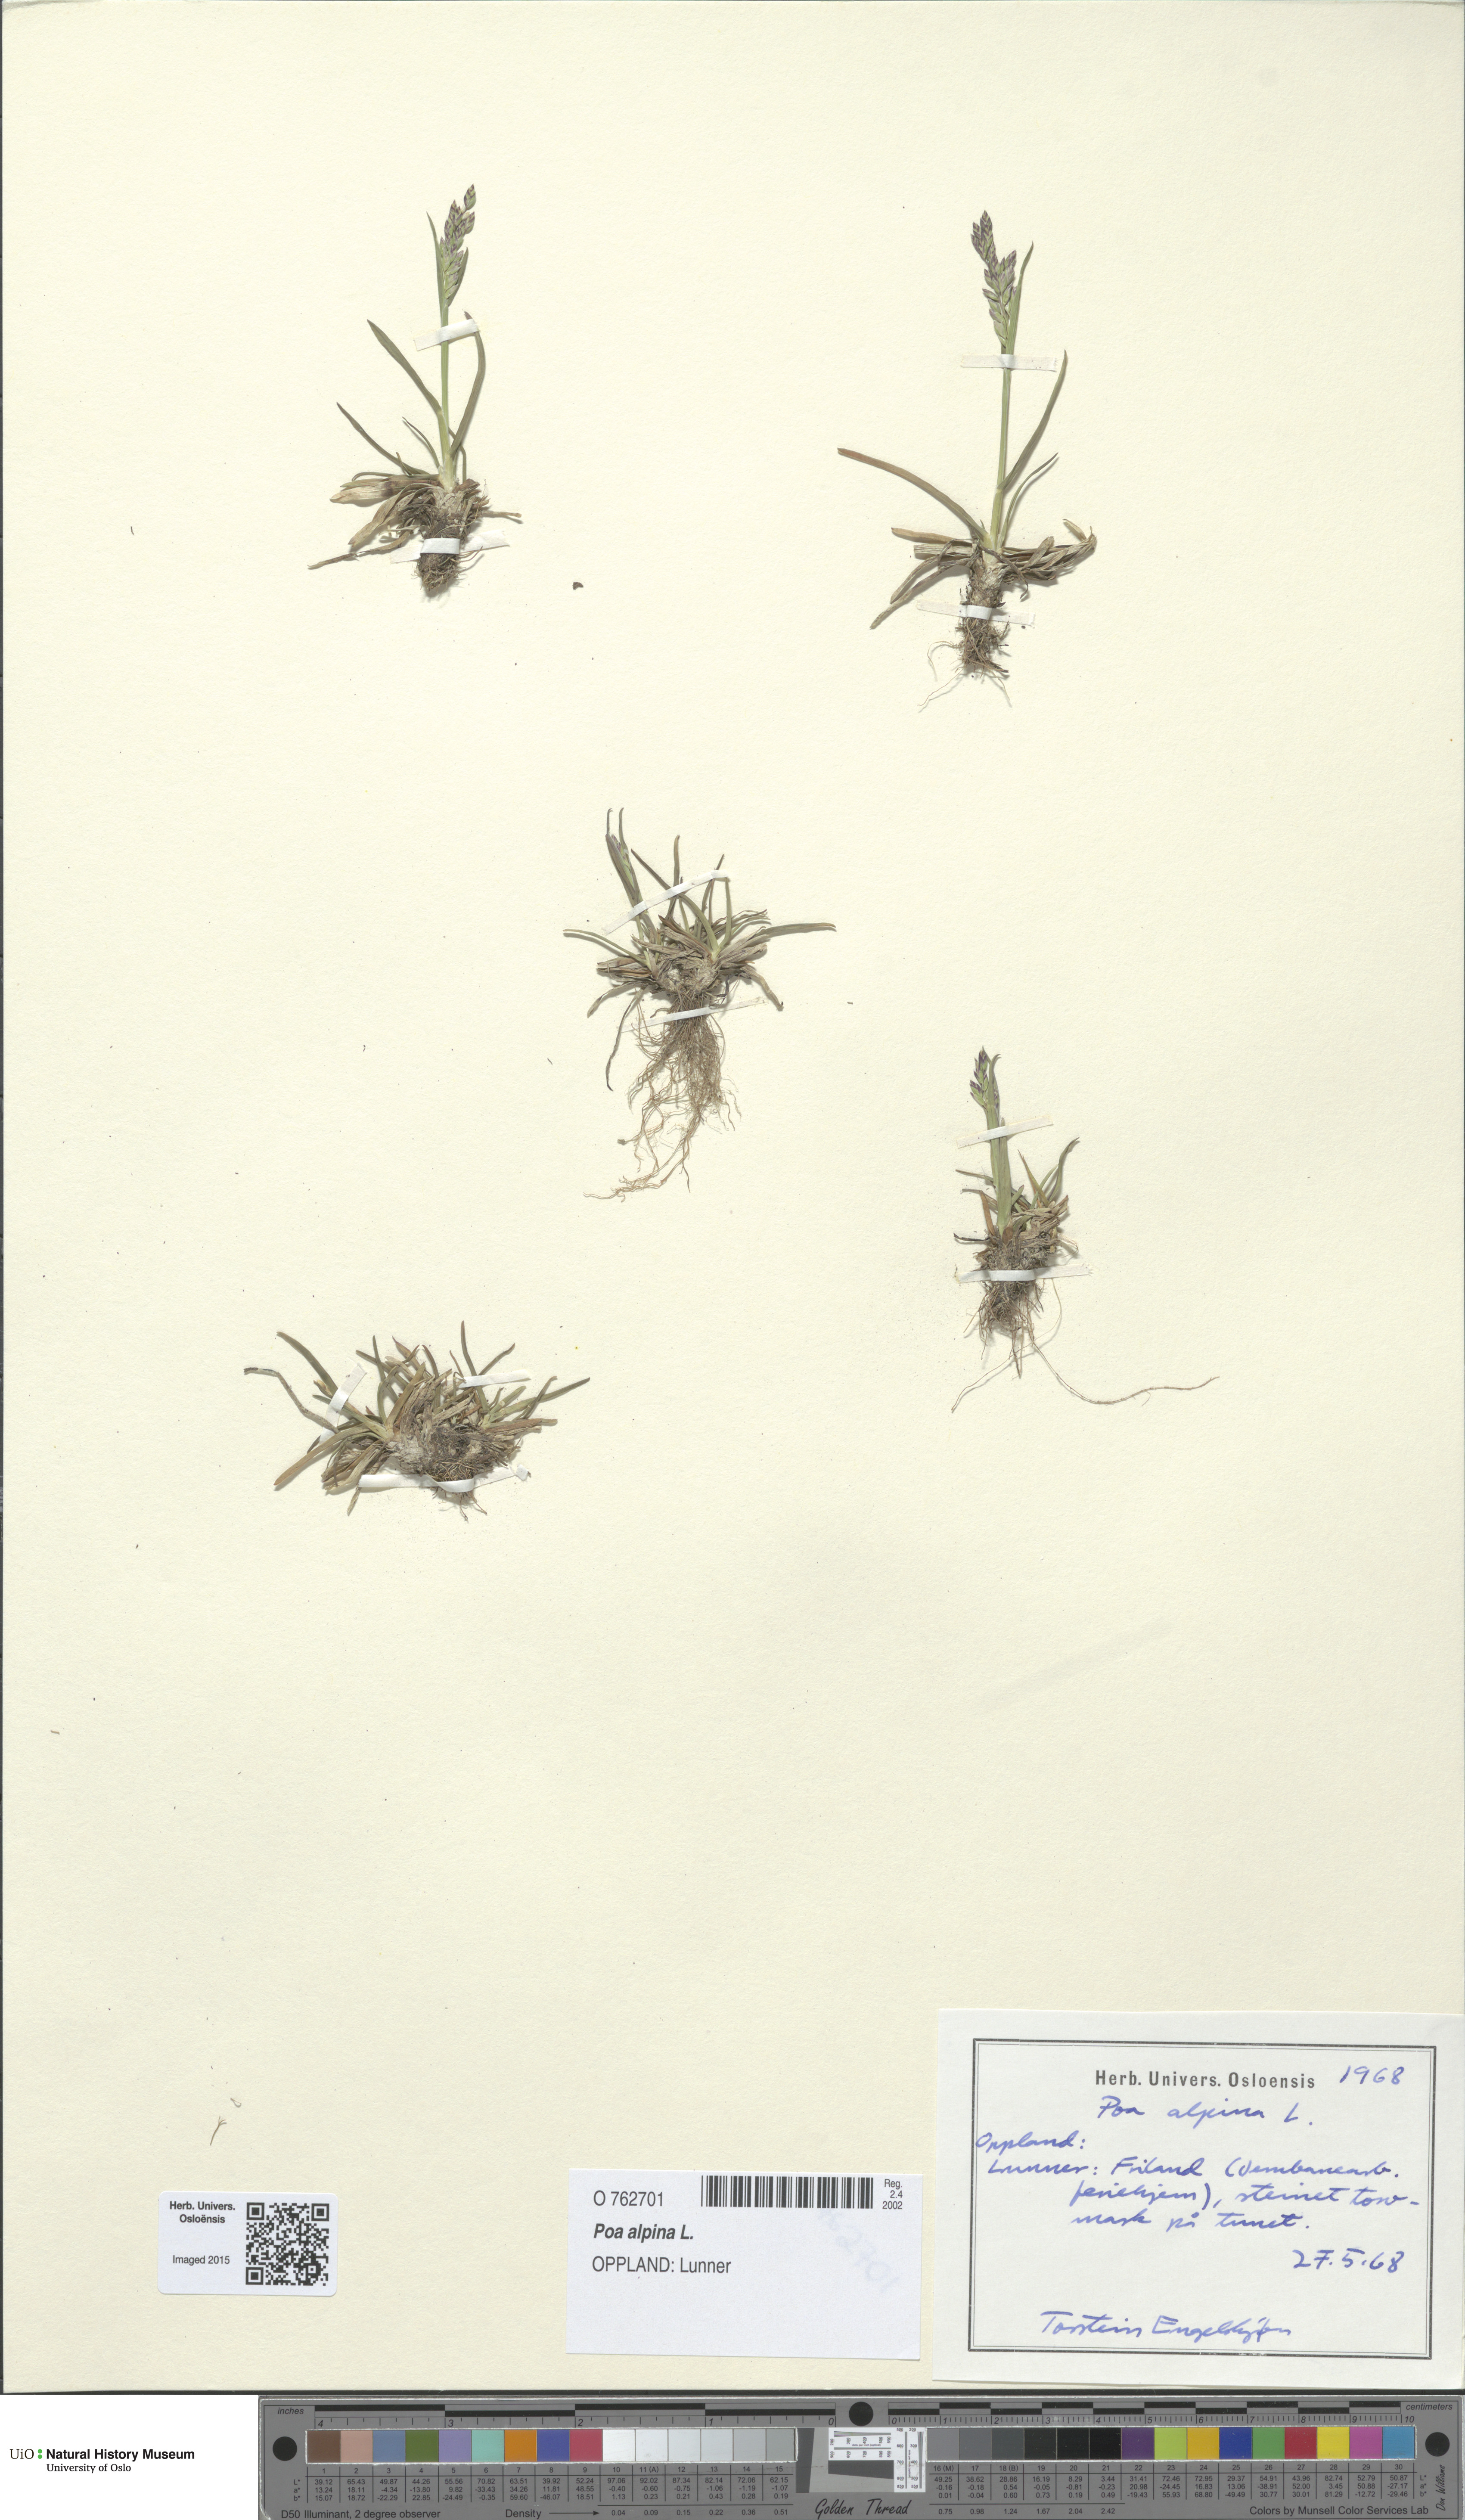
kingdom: Plantae
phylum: Tracheophyta
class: Liliopsida
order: Poales
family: Poaceae
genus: Poa
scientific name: Poa alpina
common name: Alpine bluegrass
